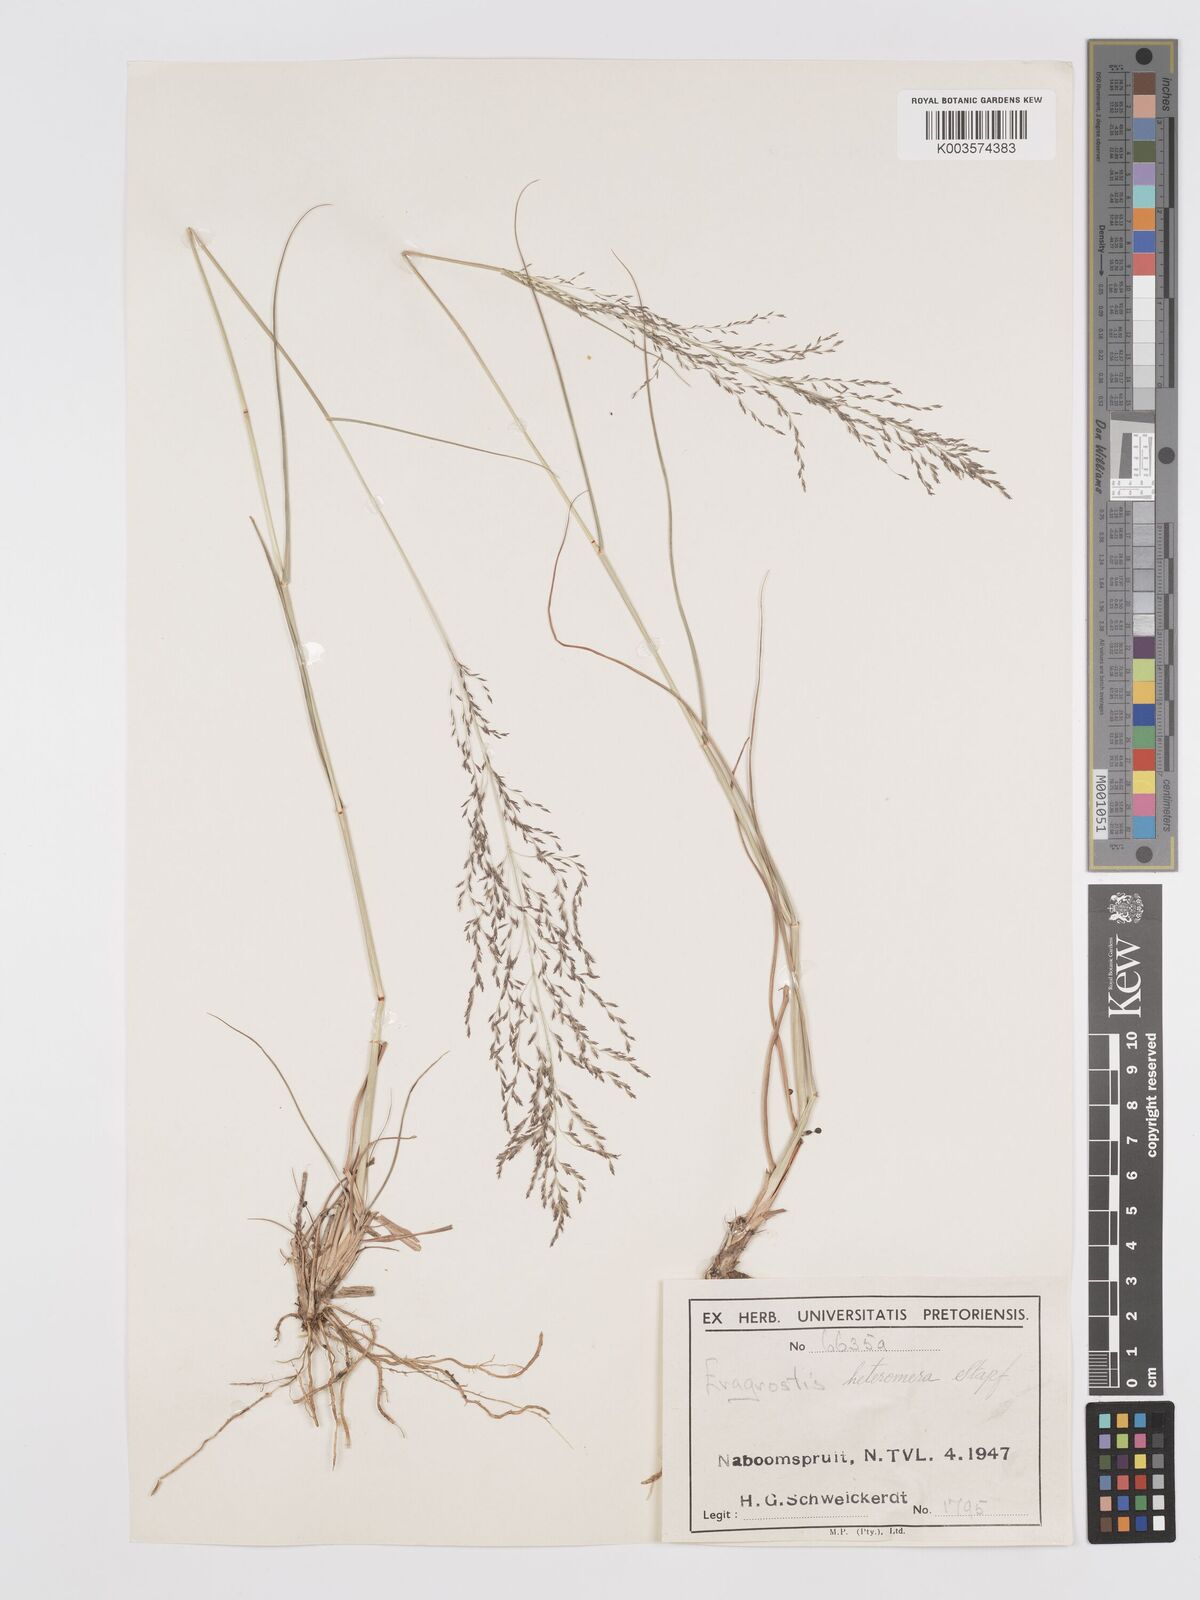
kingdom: Plantae
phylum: Tracheophyta
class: Liliopsida
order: Poales
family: Poaceae
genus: Eragrostis
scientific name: Eragrostis heteromera
